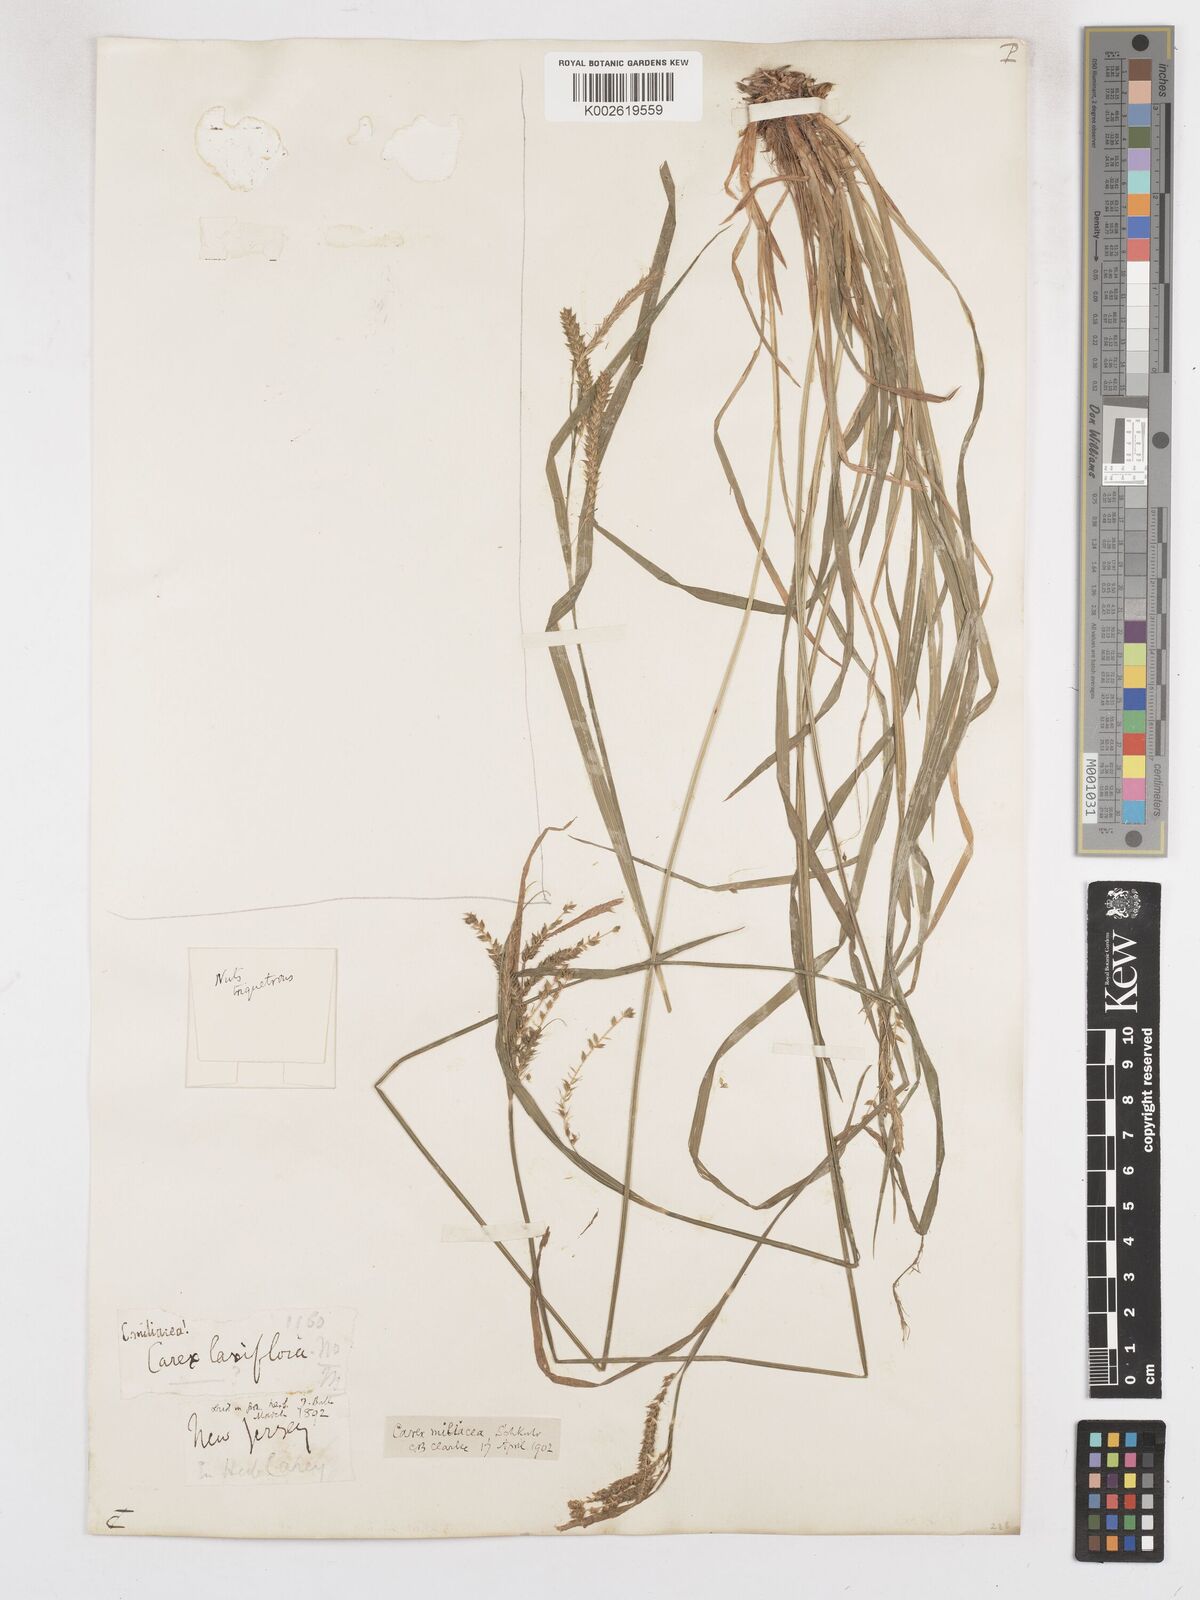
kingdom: Plantae
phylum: Tracheophyta
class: Liliopsida
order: Poales
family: Cyperaceae
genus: Carex
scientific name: Carex prasina
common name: Drooping sedge
